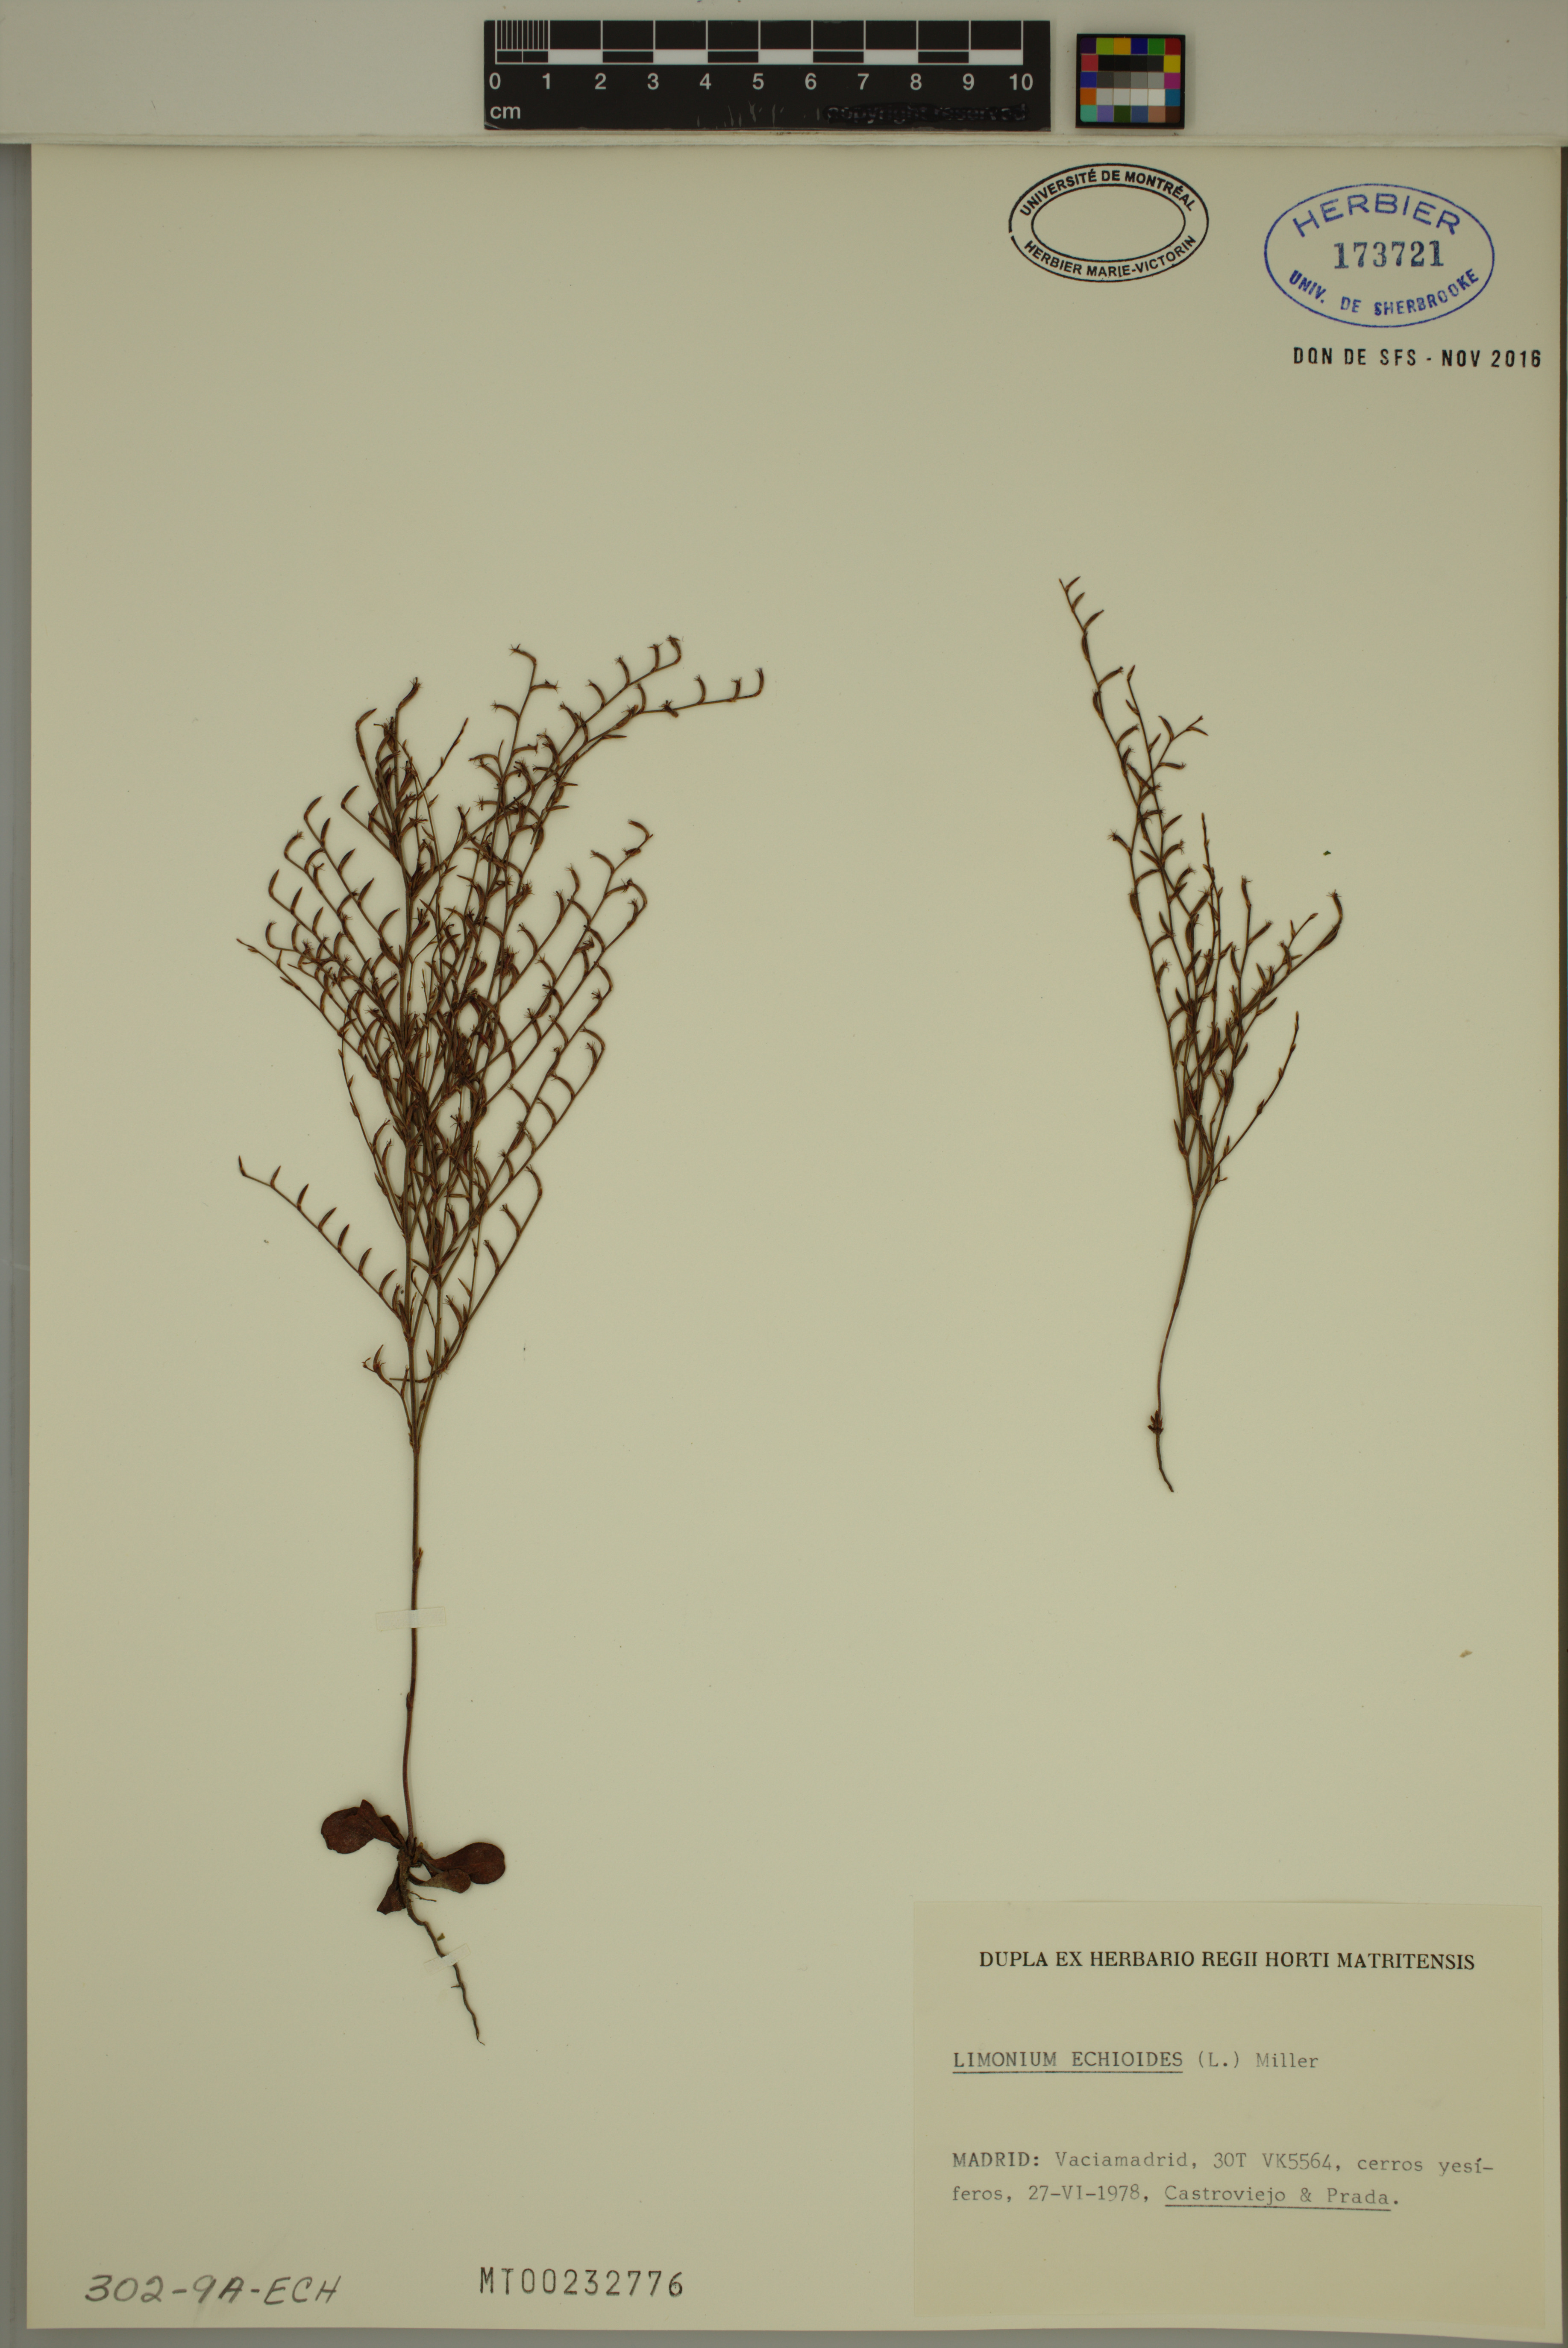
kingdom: Plantae
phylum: Tracheophyta
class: Magnoliopsida
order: Caryophyllales
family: Plumbaginaceae
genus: Limonium
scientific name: Limonium echioides
